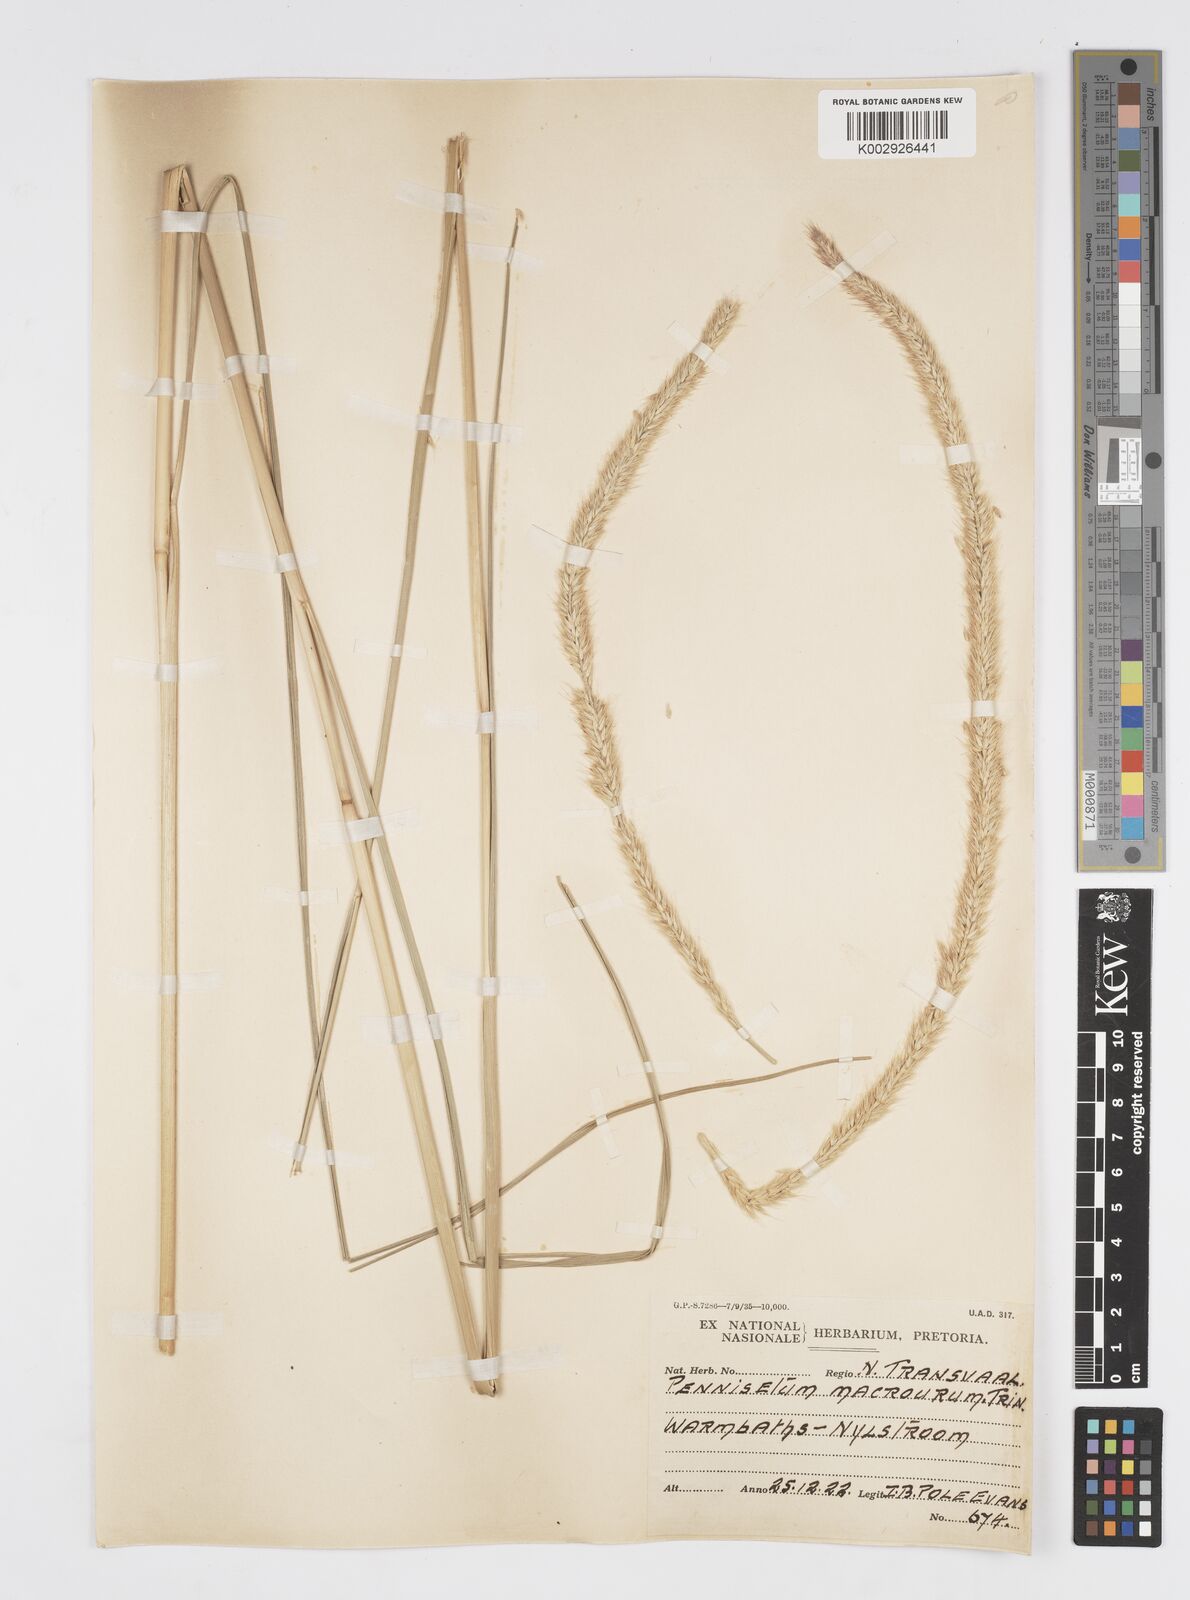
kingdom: Plantae
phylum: Tracheophyta
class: Liliopsida
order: Poales
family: Poaceae
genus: Cenchrus
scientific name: Cenchrus caudatus
